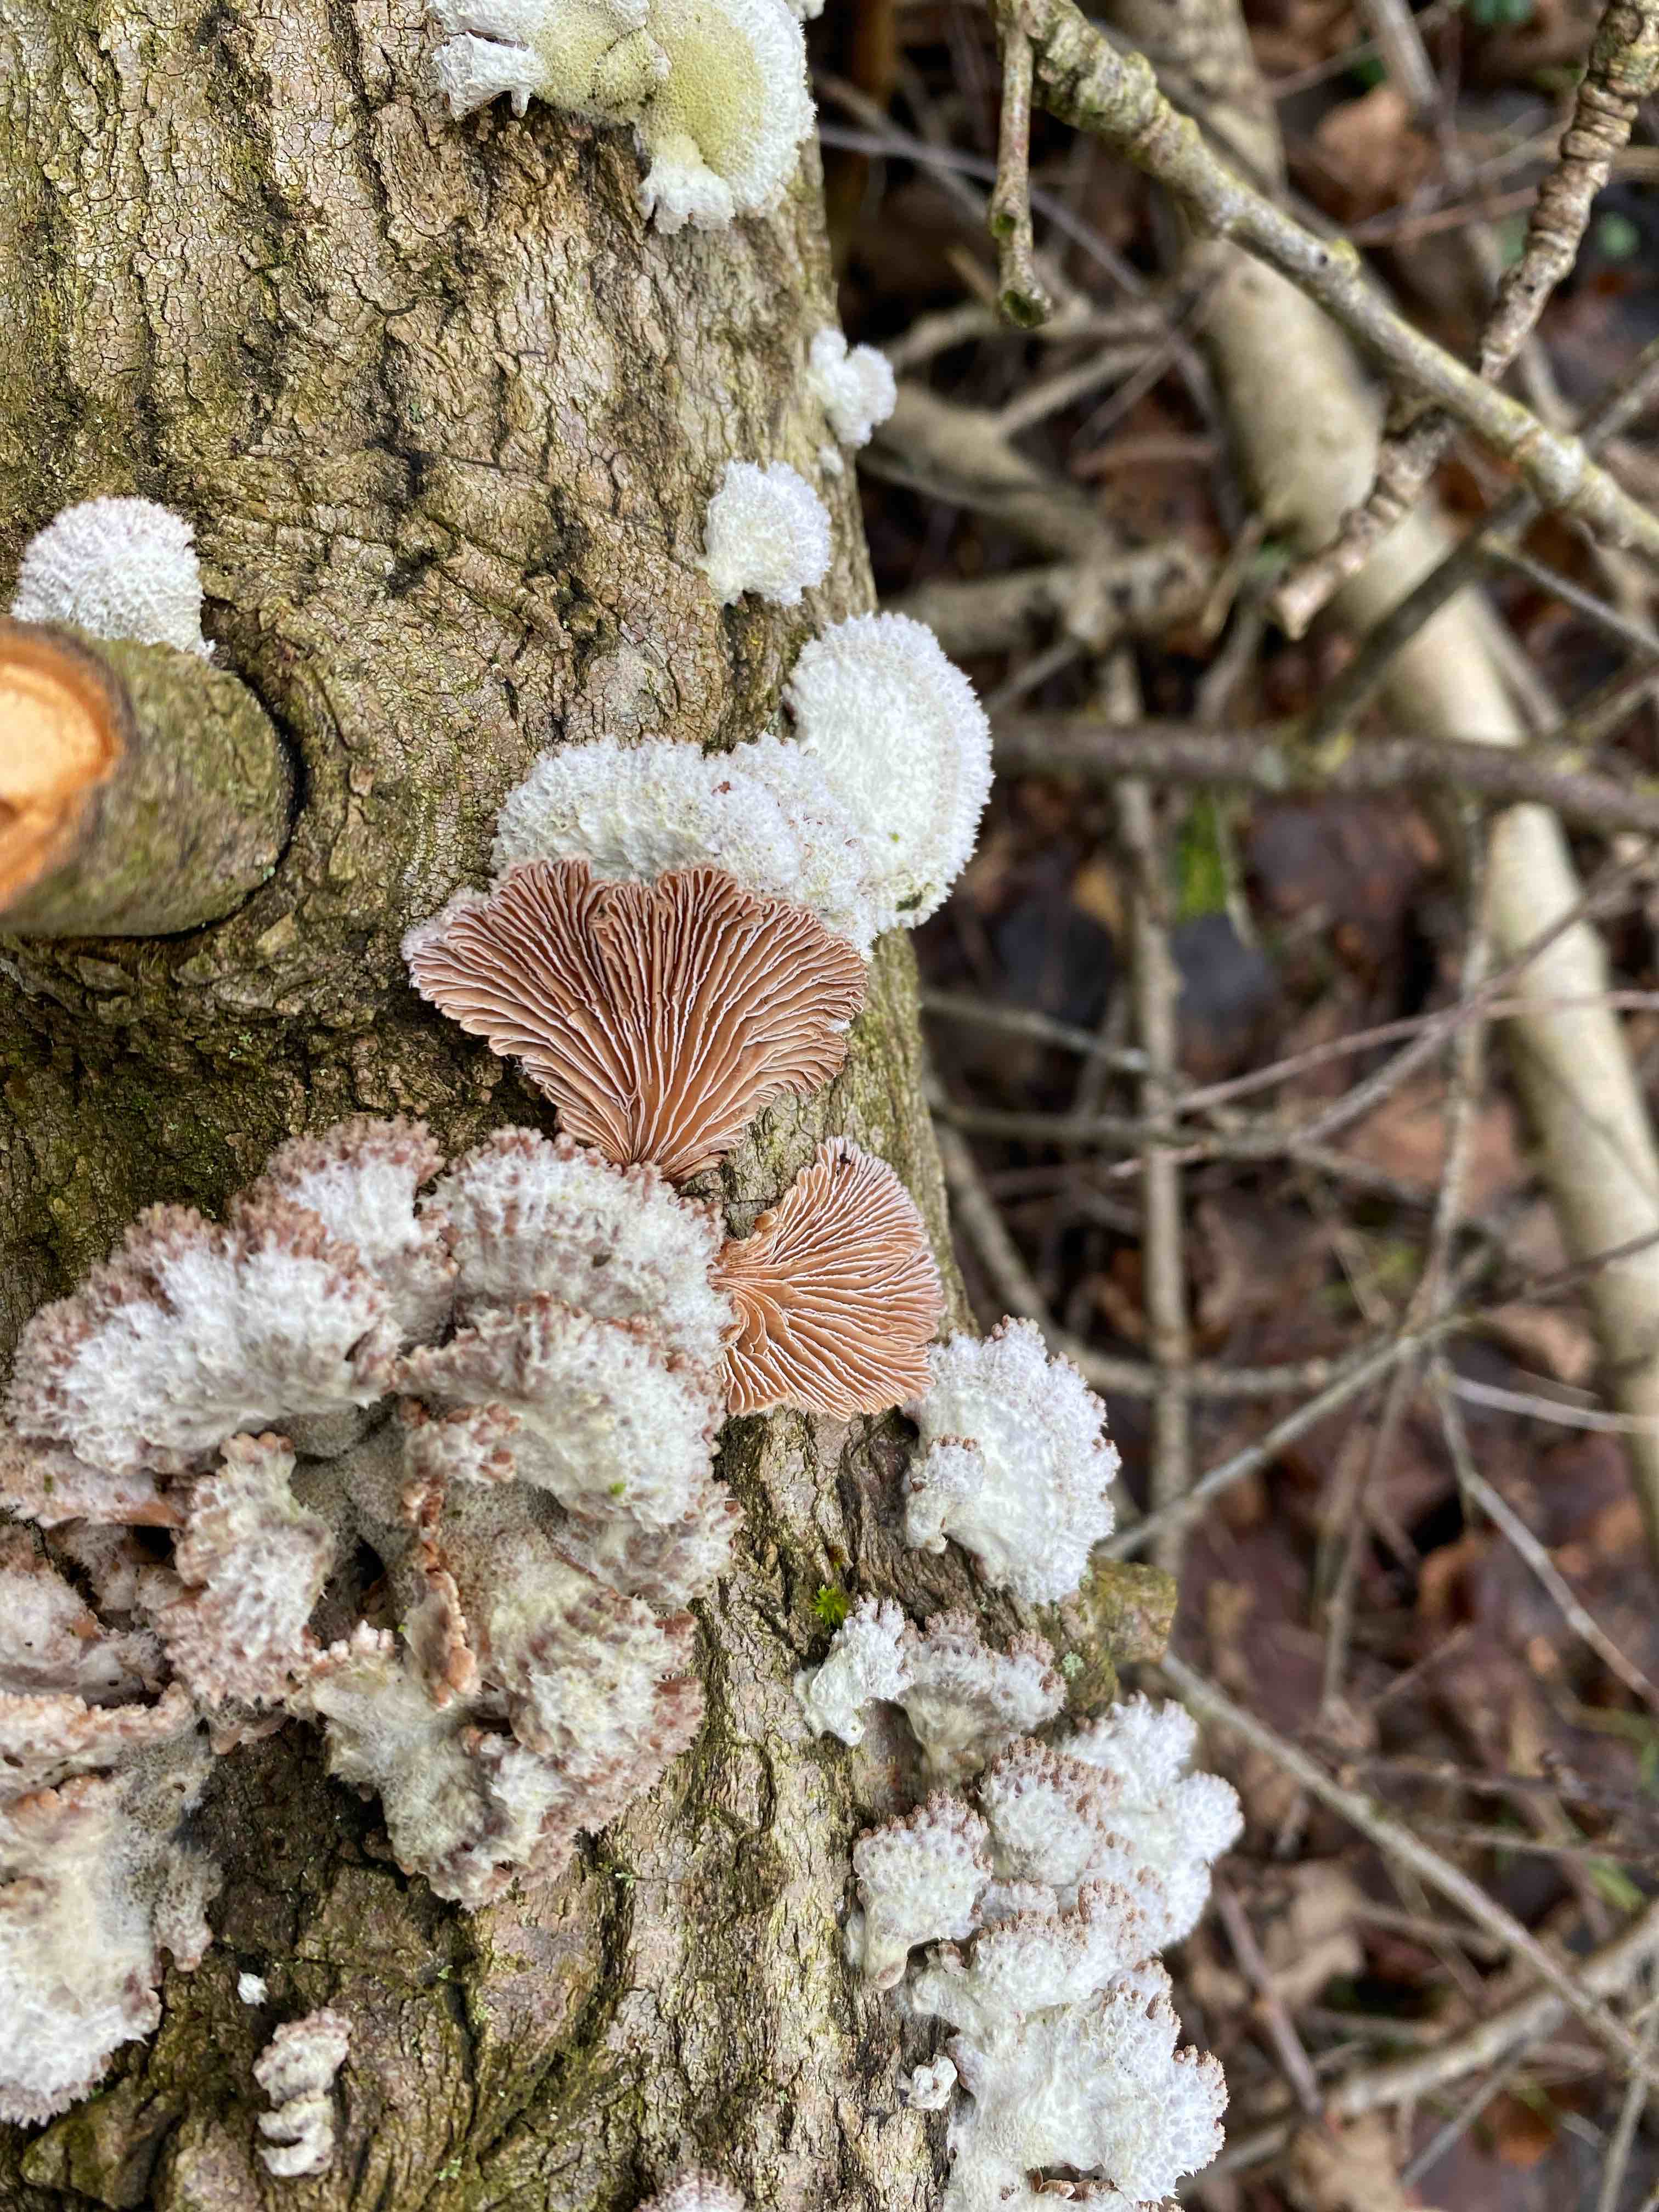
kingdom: Fungi
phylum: Basidiomycota
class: Agaricomycetes
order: Agaricales
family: Schizophyllaceae
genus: Schizophyllum
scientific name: Schizophyllum commune
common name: kløvblad
